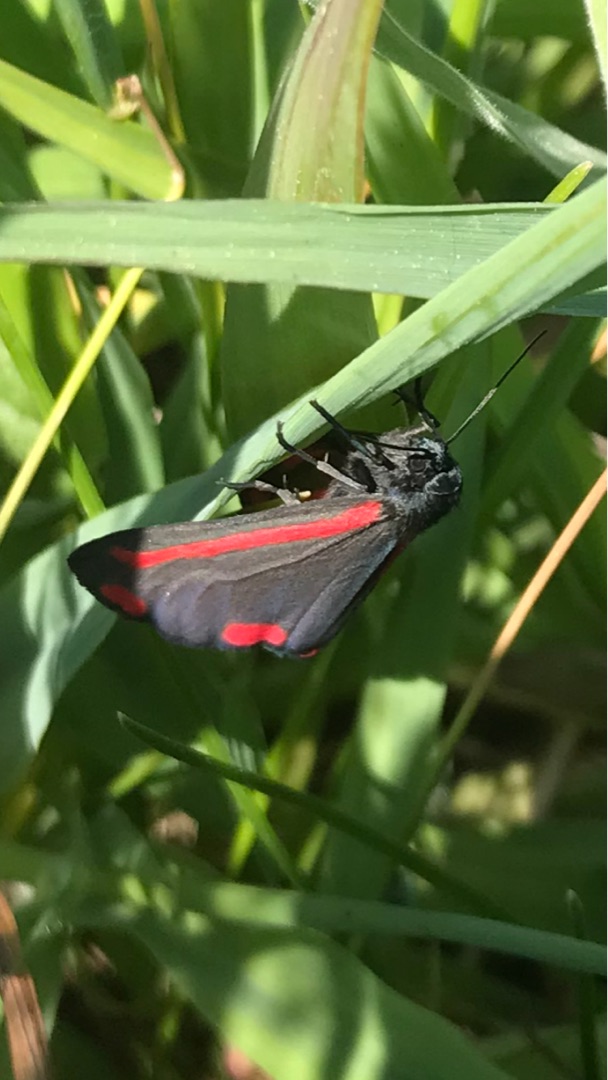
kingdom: Animalia
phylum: Arthropoda
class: Insecta
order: Lepidoptera
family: Erebidae
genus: Tyria
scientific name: Tyria jacobaeae
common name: Blodplet
